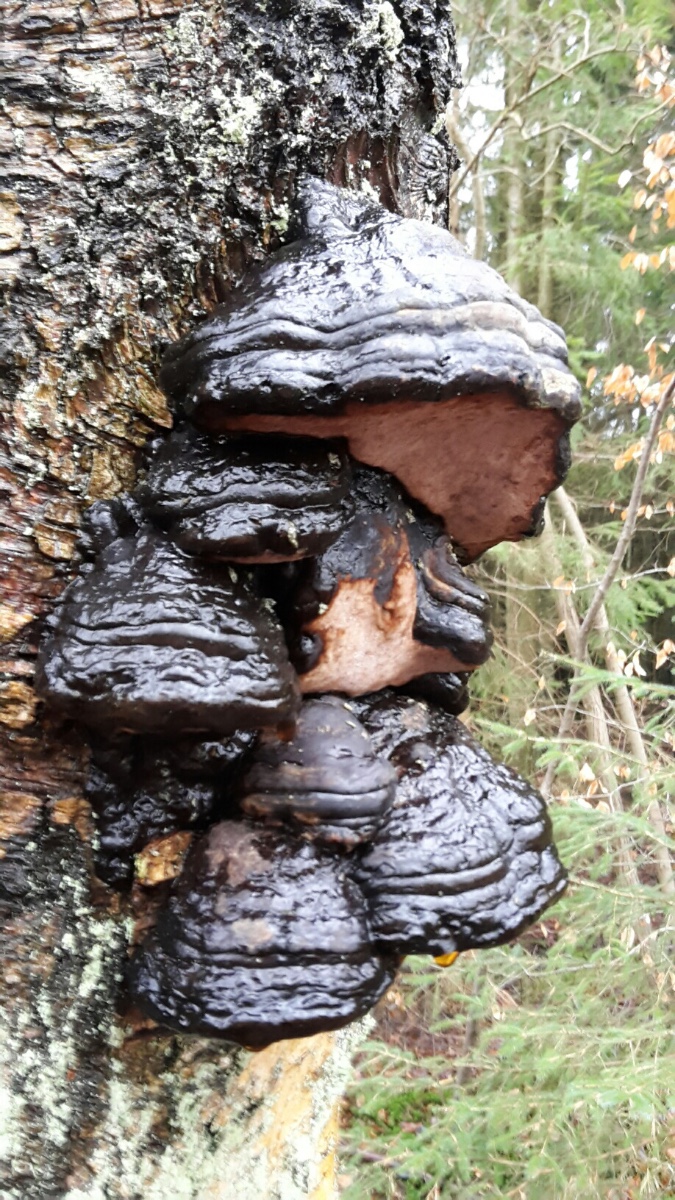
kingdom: Fungi
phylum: Basidiomycota
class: Agaricomycetes
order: Polyporales
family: Polyporaceae
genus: Fomes
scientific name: Fomes fomentarius
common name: tøndersvamp
